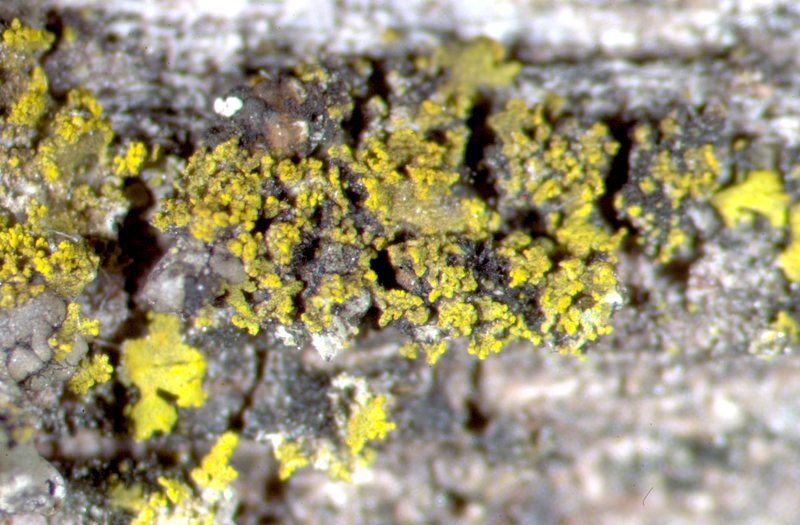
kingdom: Fungi
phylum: Ascomycota
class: Candelariomycetes
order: Candelariales
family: Candelariaceae
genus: Candelaria
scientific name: Candelaria concolor
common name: Candleflame lichen
